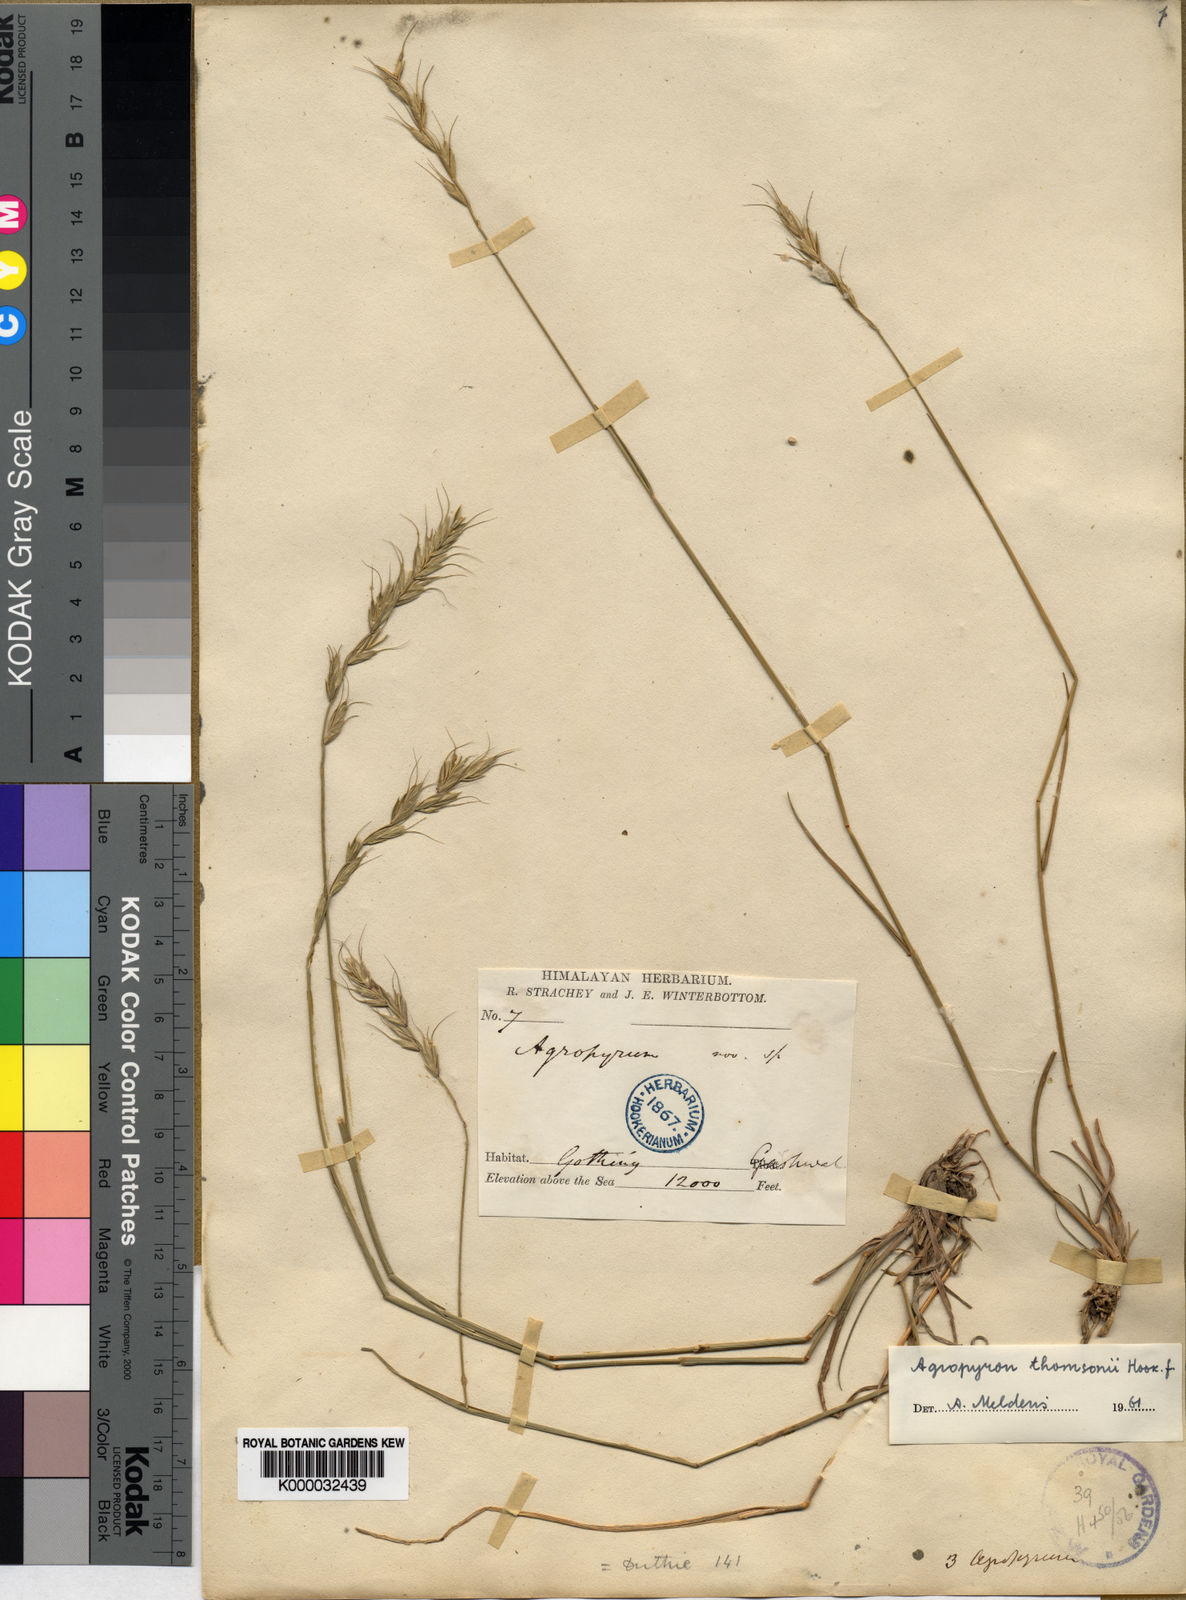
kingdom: Plantae
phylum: Tracheophyta
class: Liliopsida
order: Poales
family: Poaceae
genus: Agropyron
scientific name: Agropyron thomsonii
